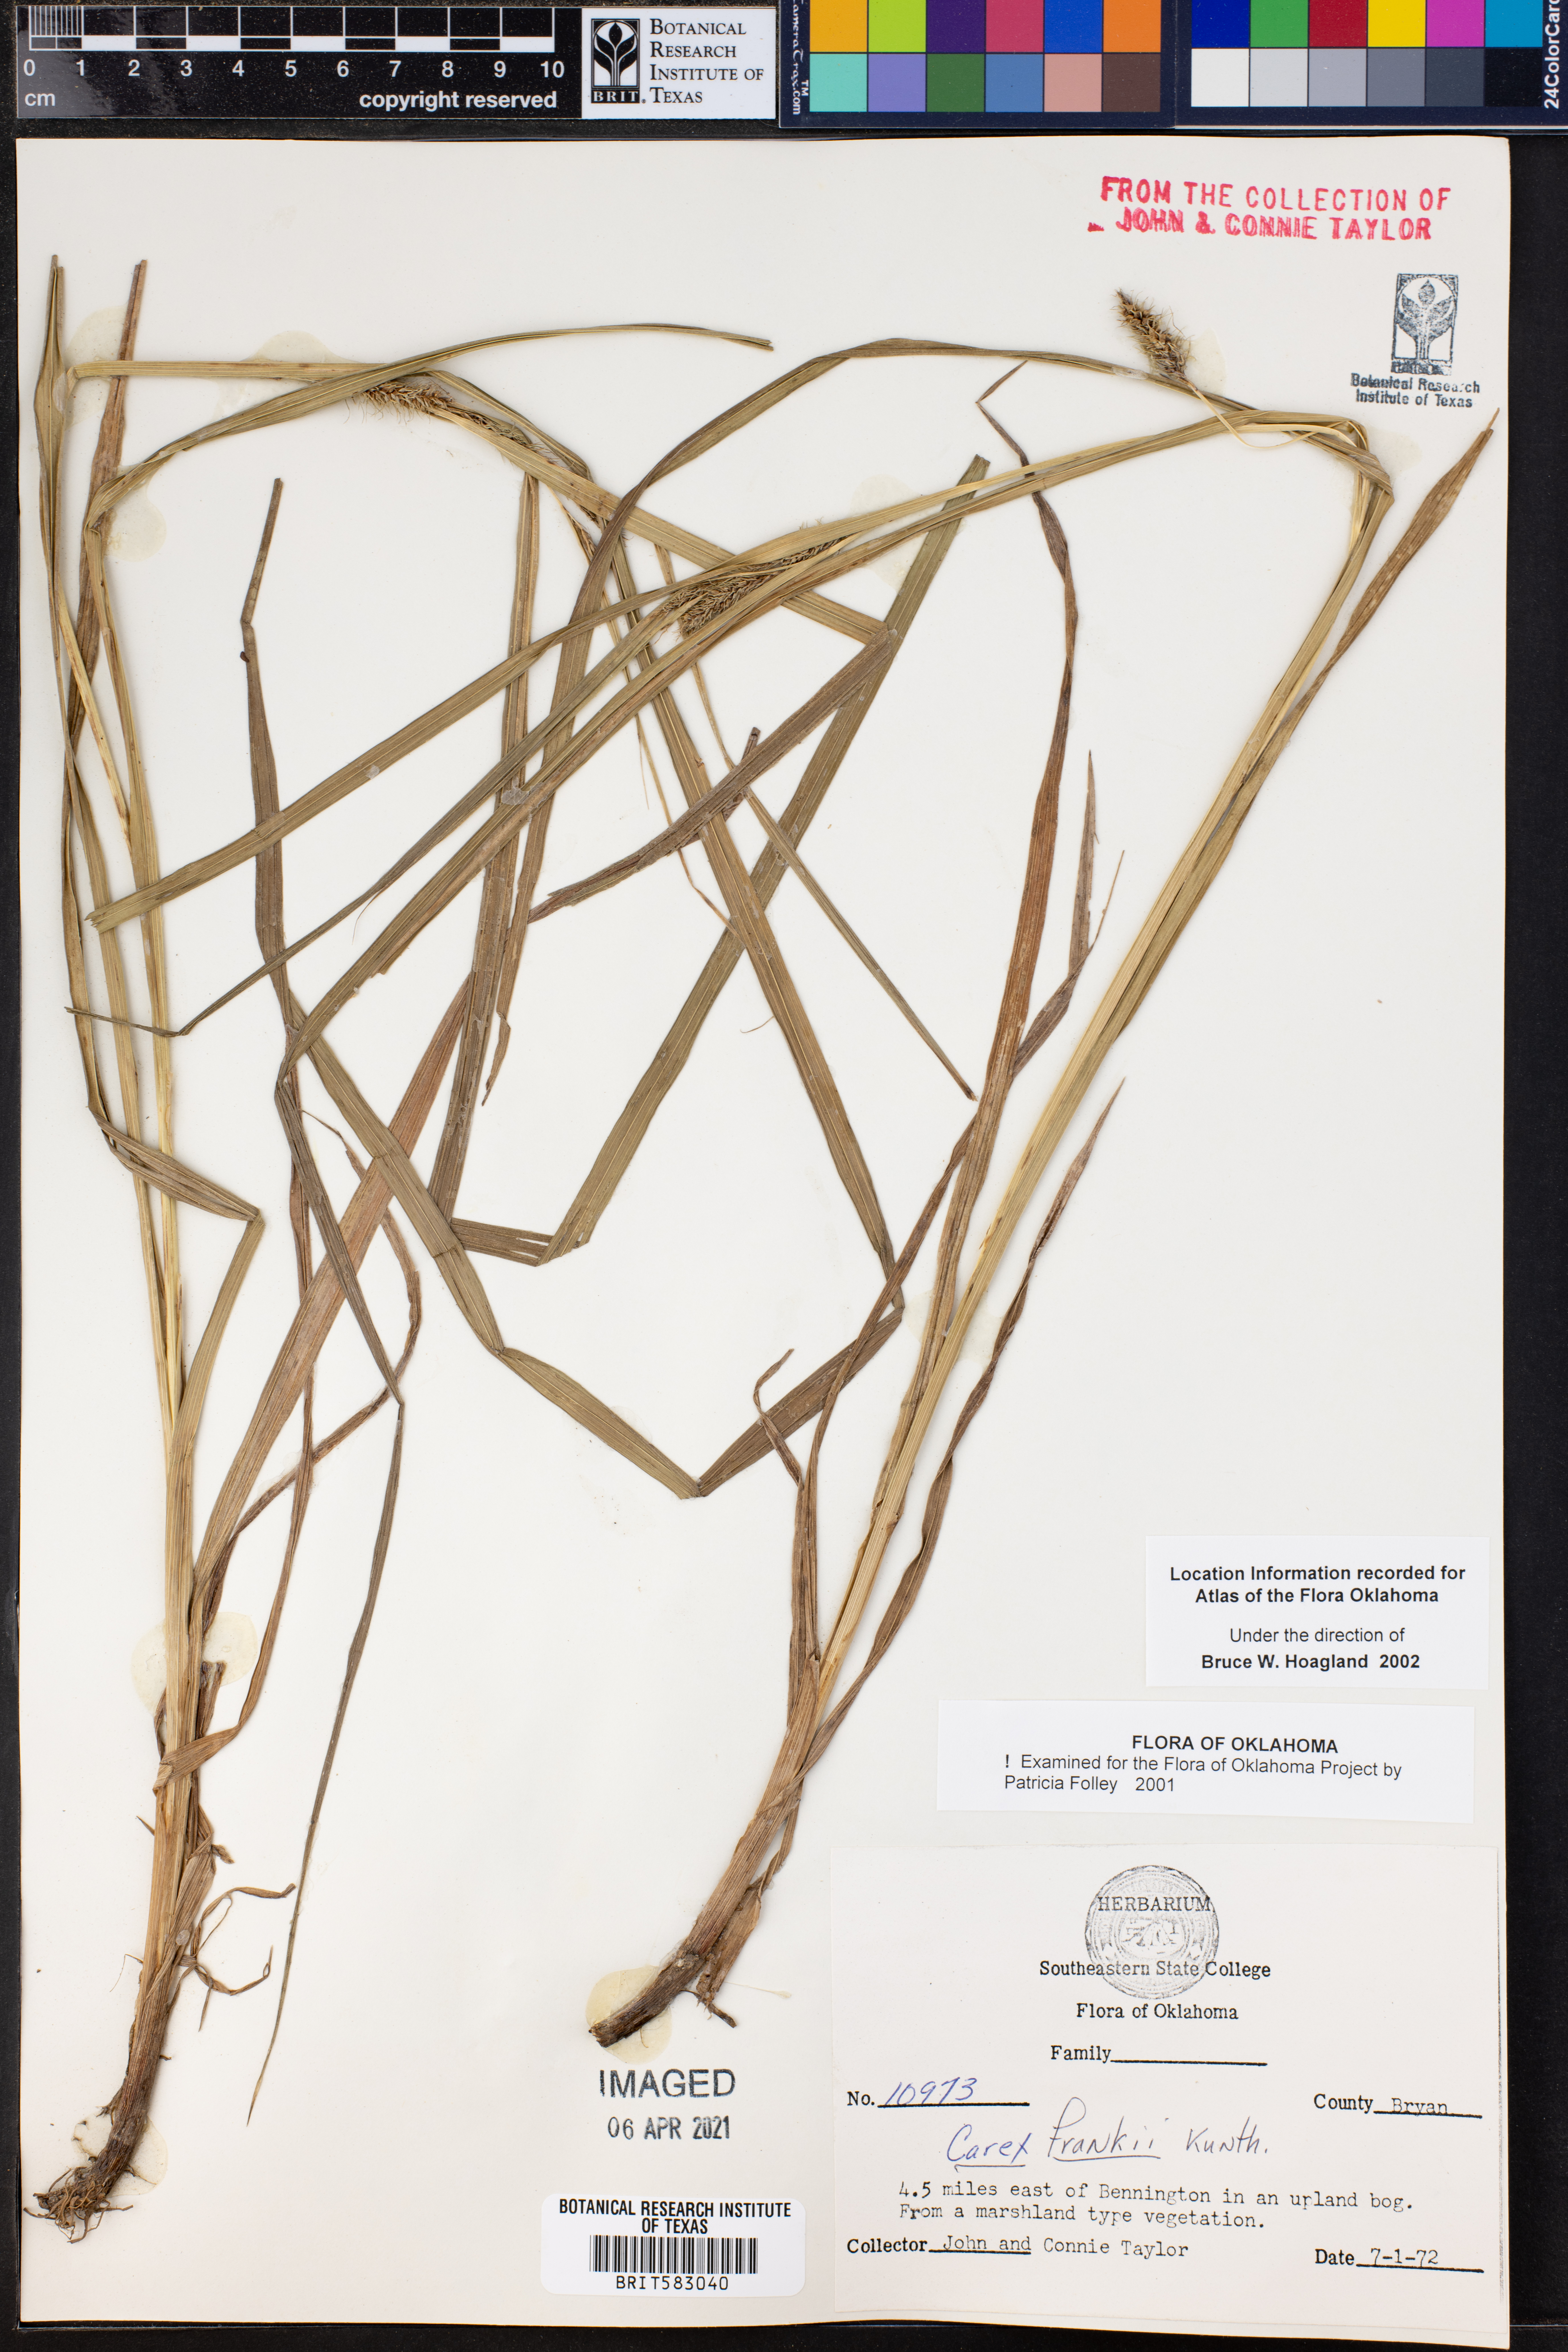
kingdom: Plantae
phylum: Tracheophyta
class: Liliopsida
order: Poales
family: Cyperaceae
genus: Carex
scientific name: Carex frankii
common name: Frank's sedge
